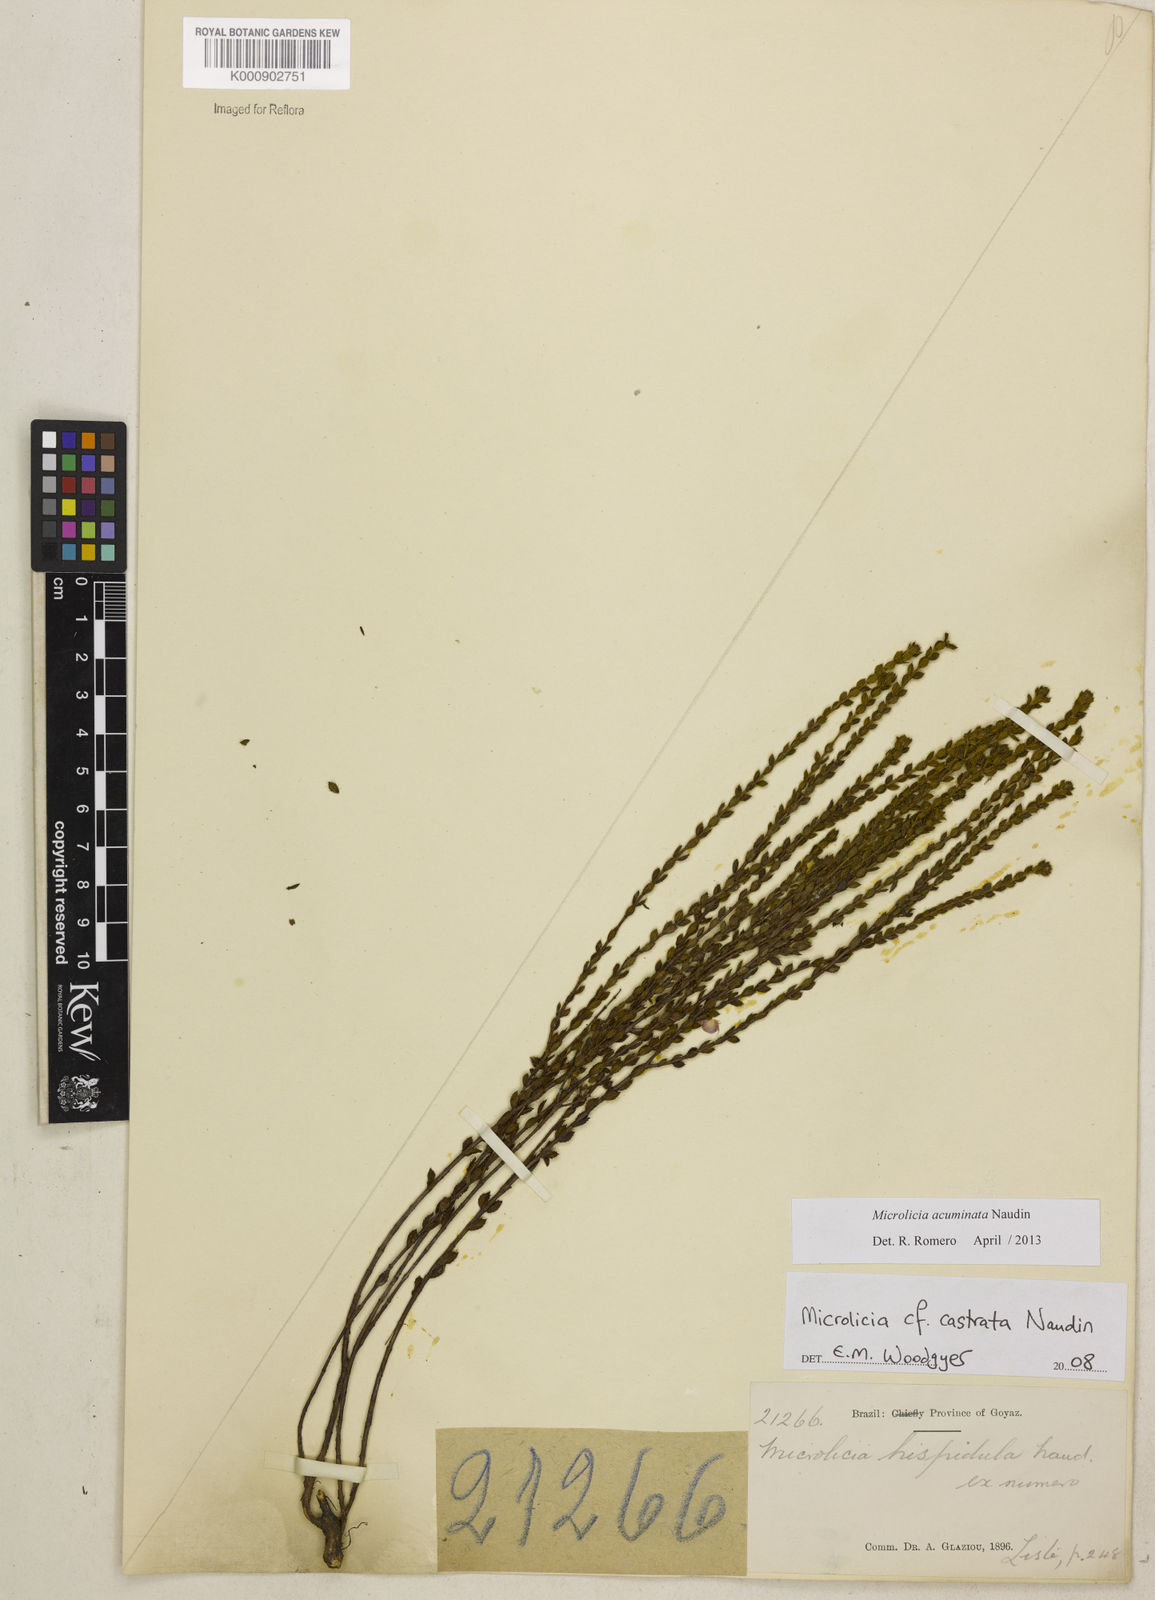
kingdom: Plantae
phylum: Tracheophyta
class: Magnoliopsida
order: Myrtales
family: Melastomataceae
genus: Microlicia
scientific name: Microlicia
